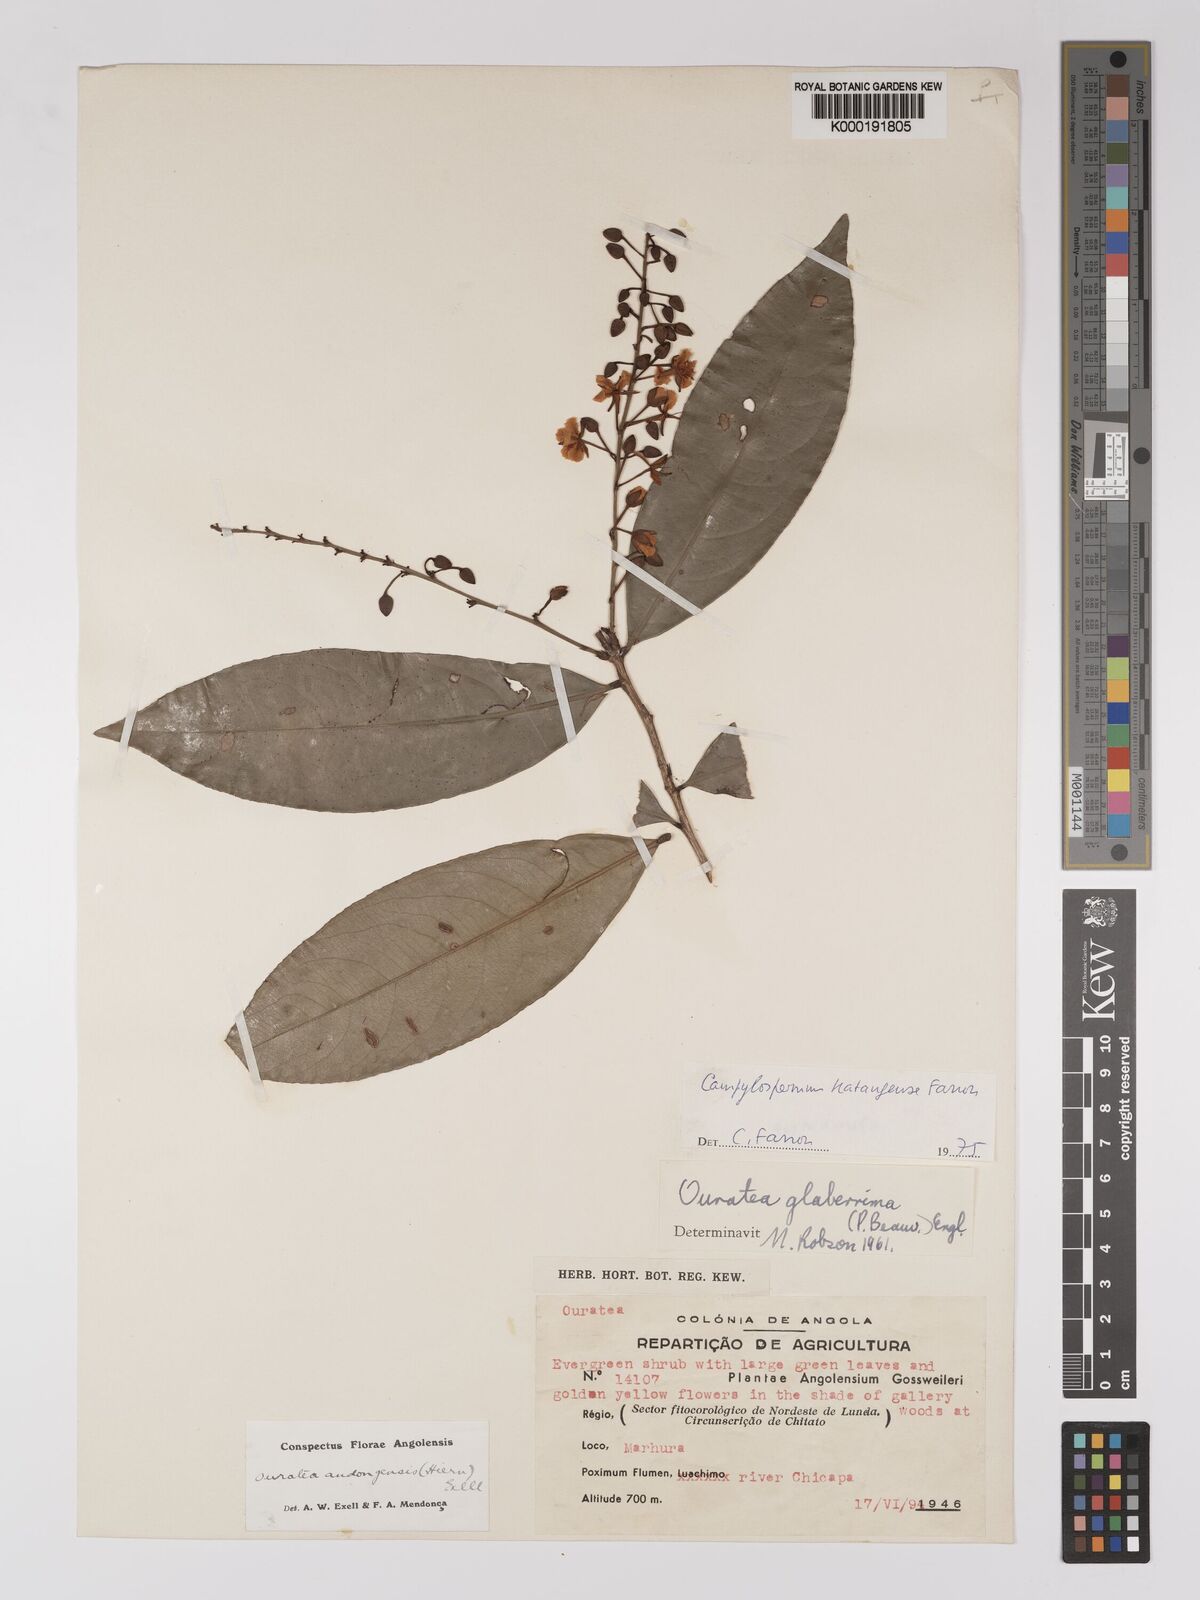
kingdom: Plantae
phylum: Tracheophyta
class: Magnoliopsida
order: Malpighiales
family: Ochnaceae
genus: Campylospermum
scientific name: Campylospermum katangense
